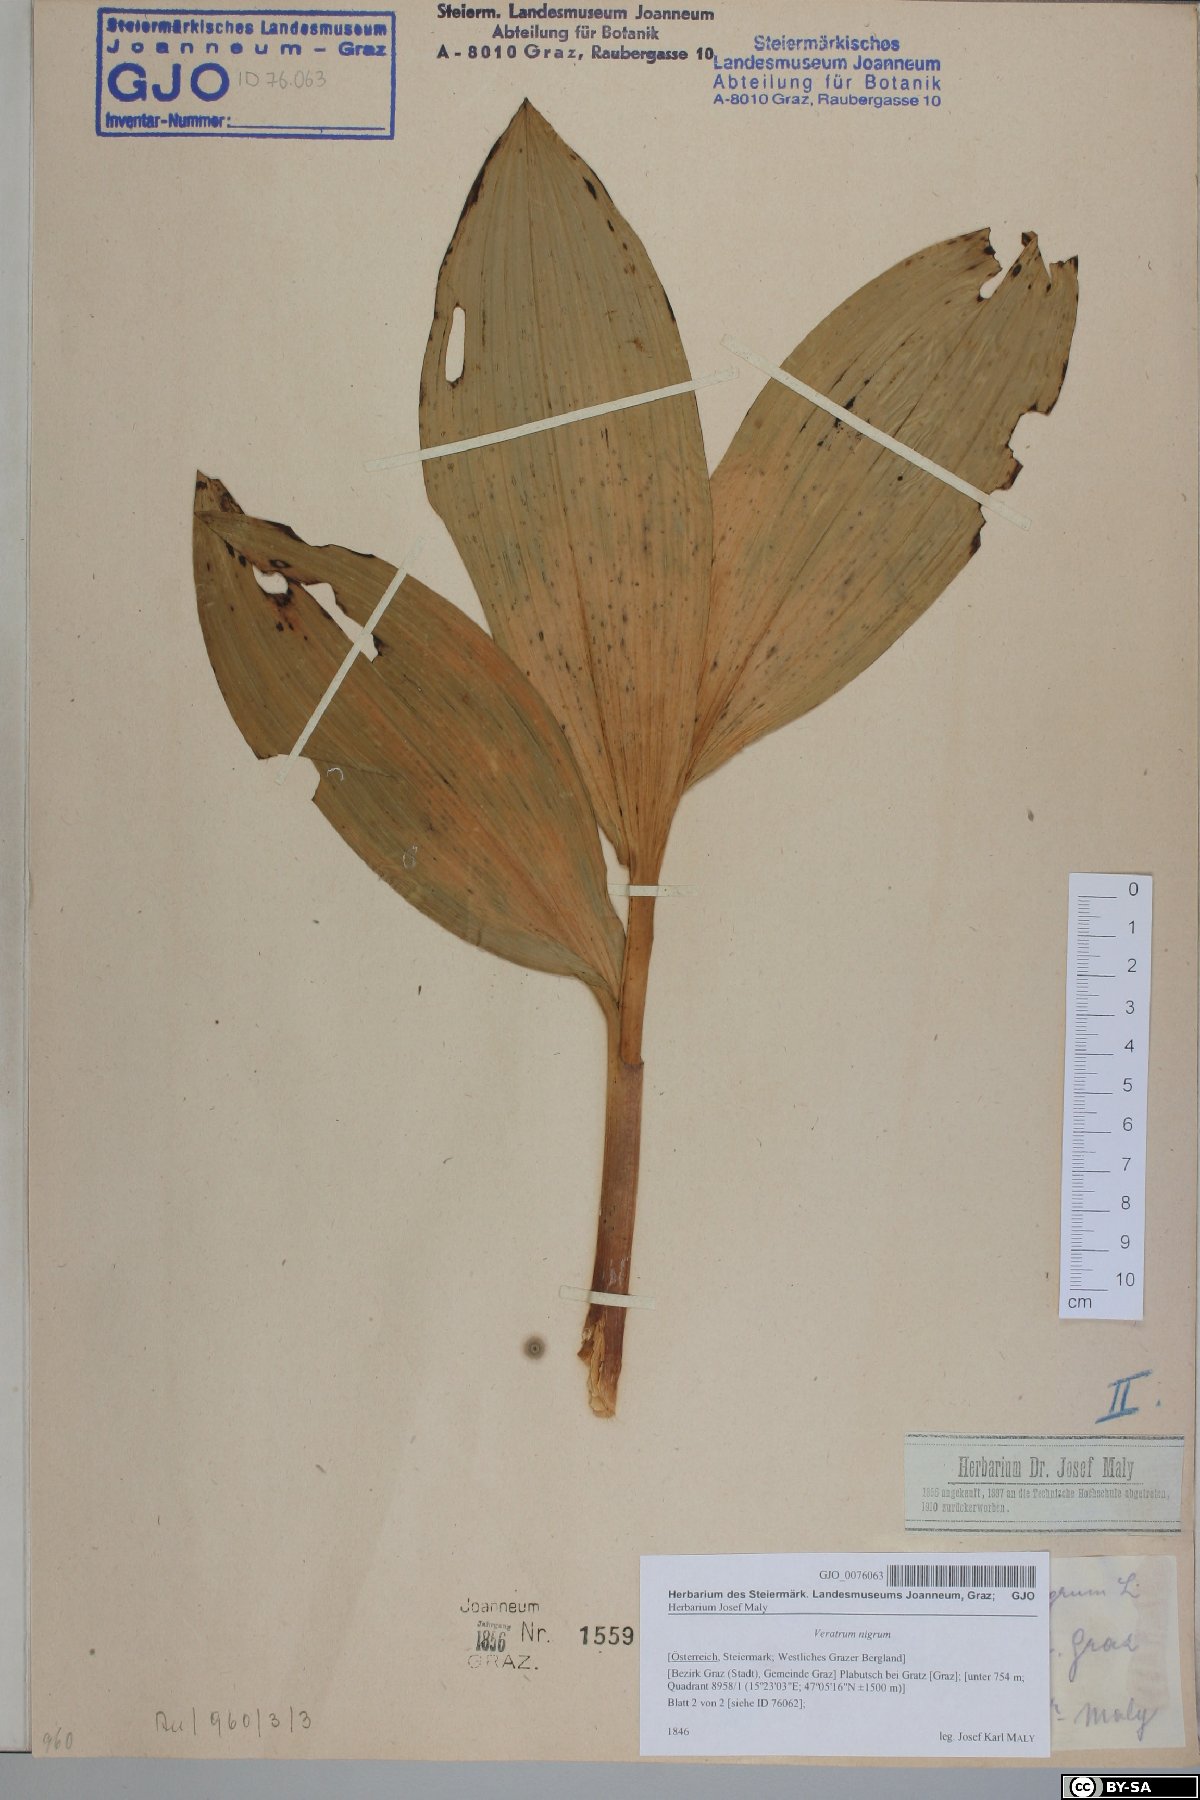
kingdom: Plantae
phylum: Tracheophyta
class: Liliopsida
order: Liliales
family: Melanthiaceae
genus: Veratrum
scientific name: Veratrum nigrum
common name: Black veratrum
